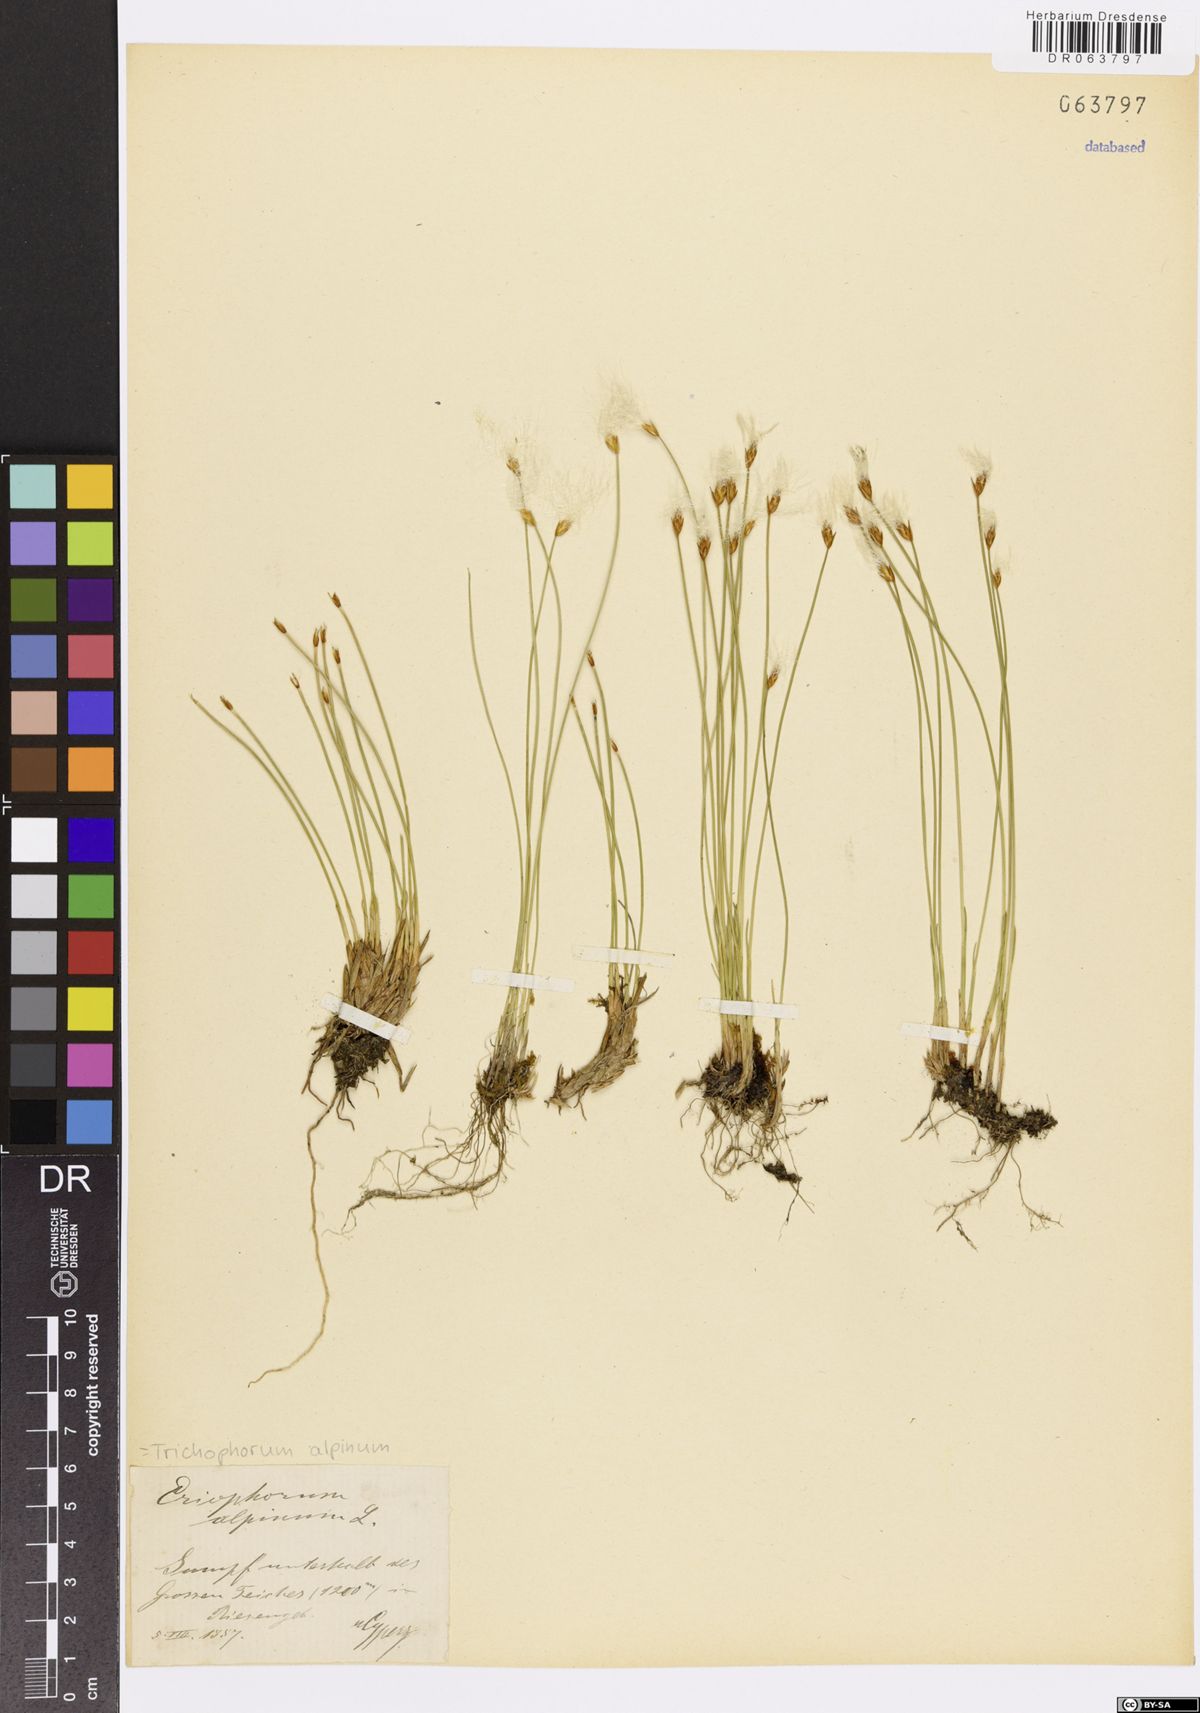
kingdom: Plantae
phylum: Tracheophyta
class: Liliopsida
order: Poales
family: Cyperaceae
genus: Trichophorum
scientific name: Trichophorum alpinum
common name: Alpine bulrush
